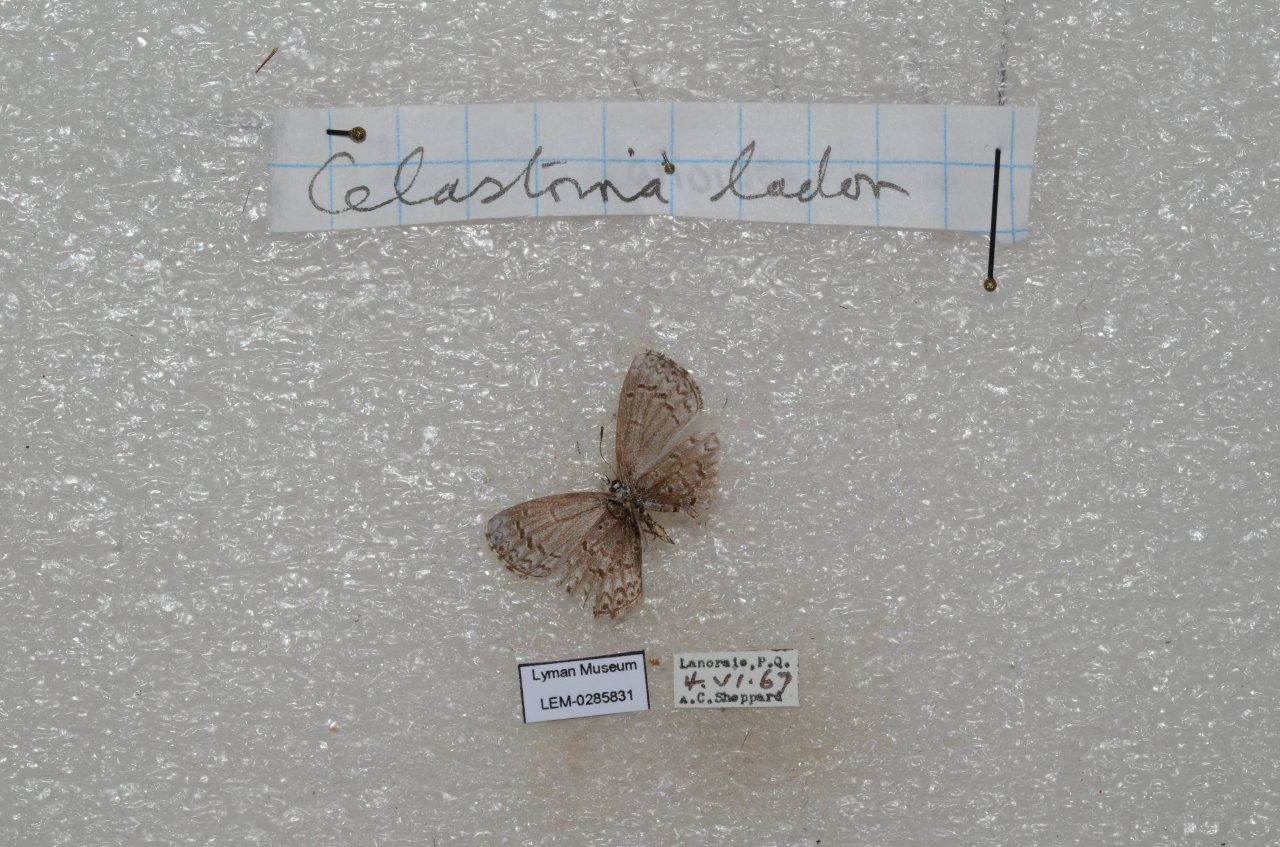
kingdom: Animalia
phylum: Arthropoda
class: Insecta
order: Lepidoptera
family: Lycaenidae
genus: Celastrina
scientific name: Celastrina lucia
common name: Northern Spring Azure
